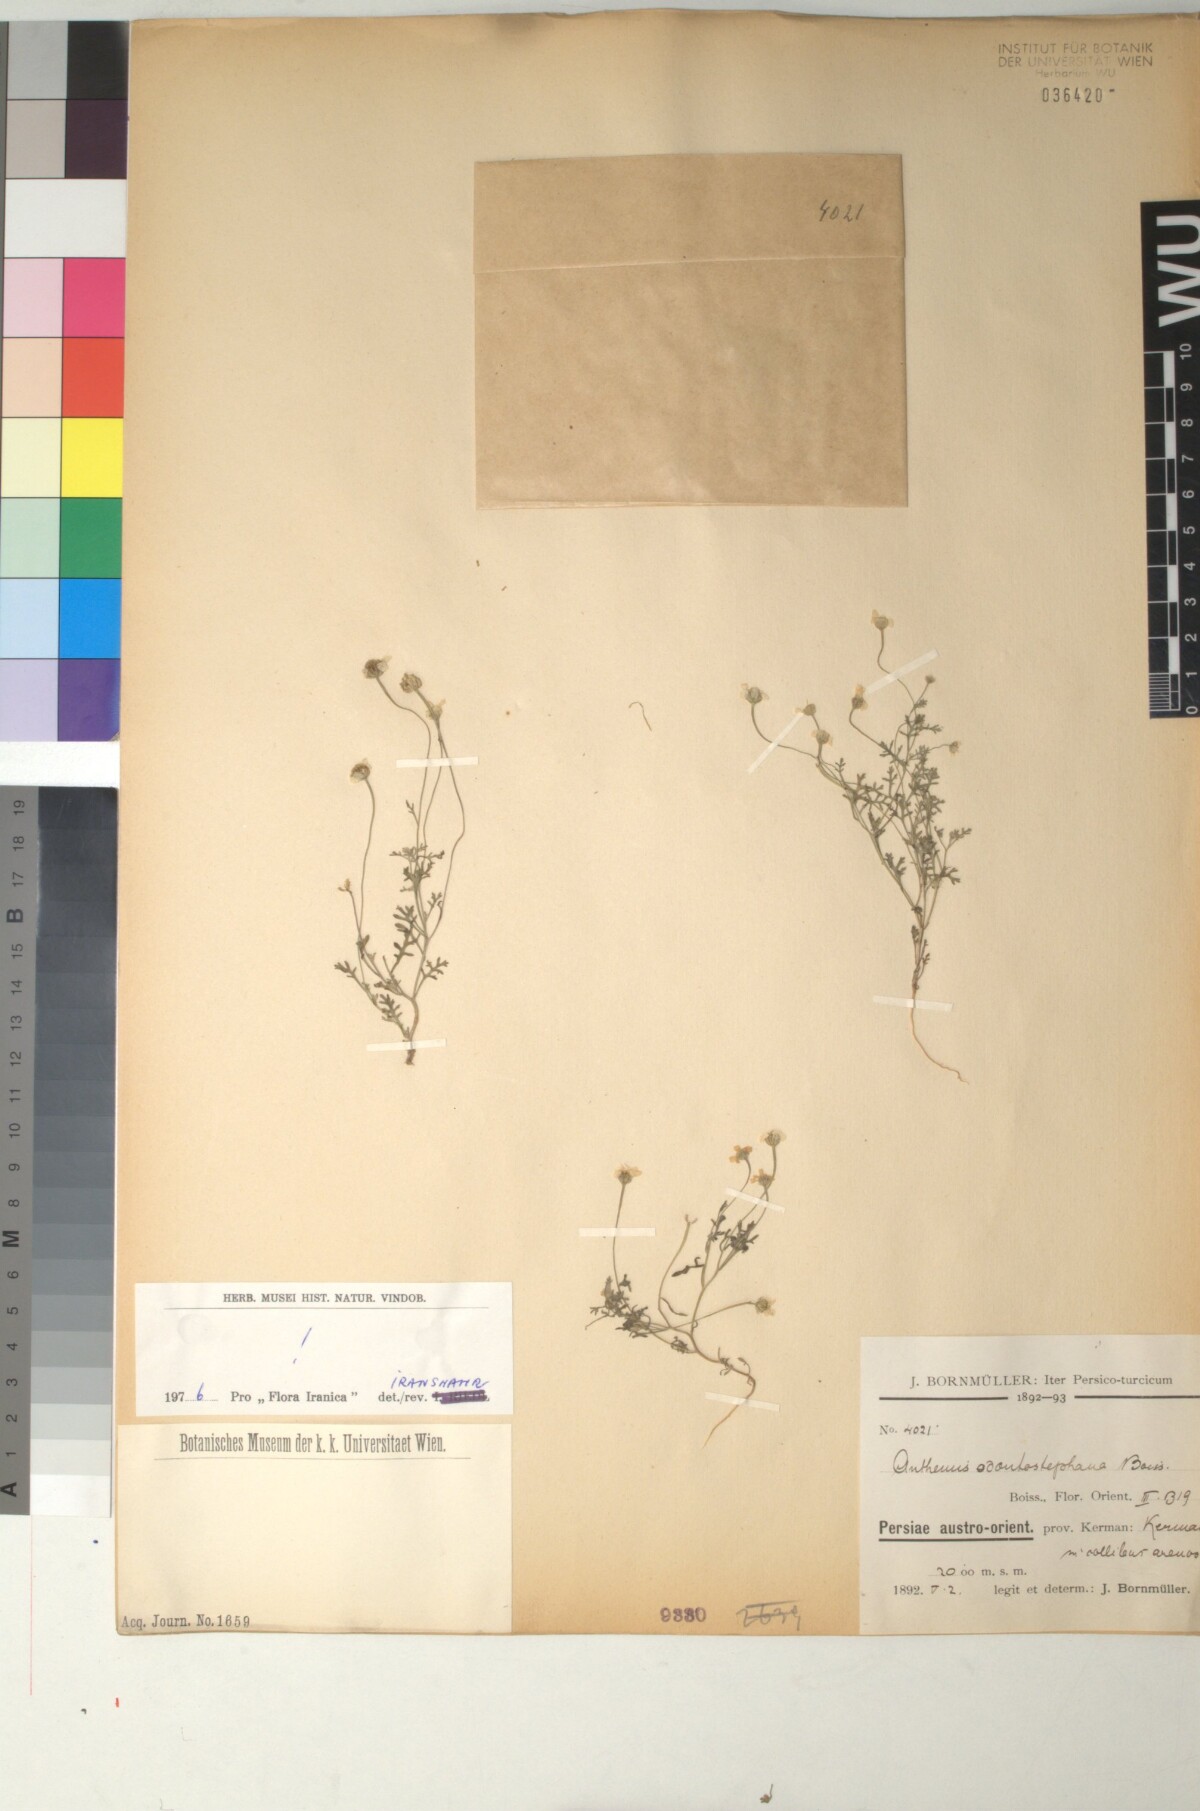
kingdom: Plantae
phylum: Tracheophyta
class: Magnoliopsida
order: Asterales
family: Asteraceae
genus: Anthemis
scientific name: Anthemis odontostephana
